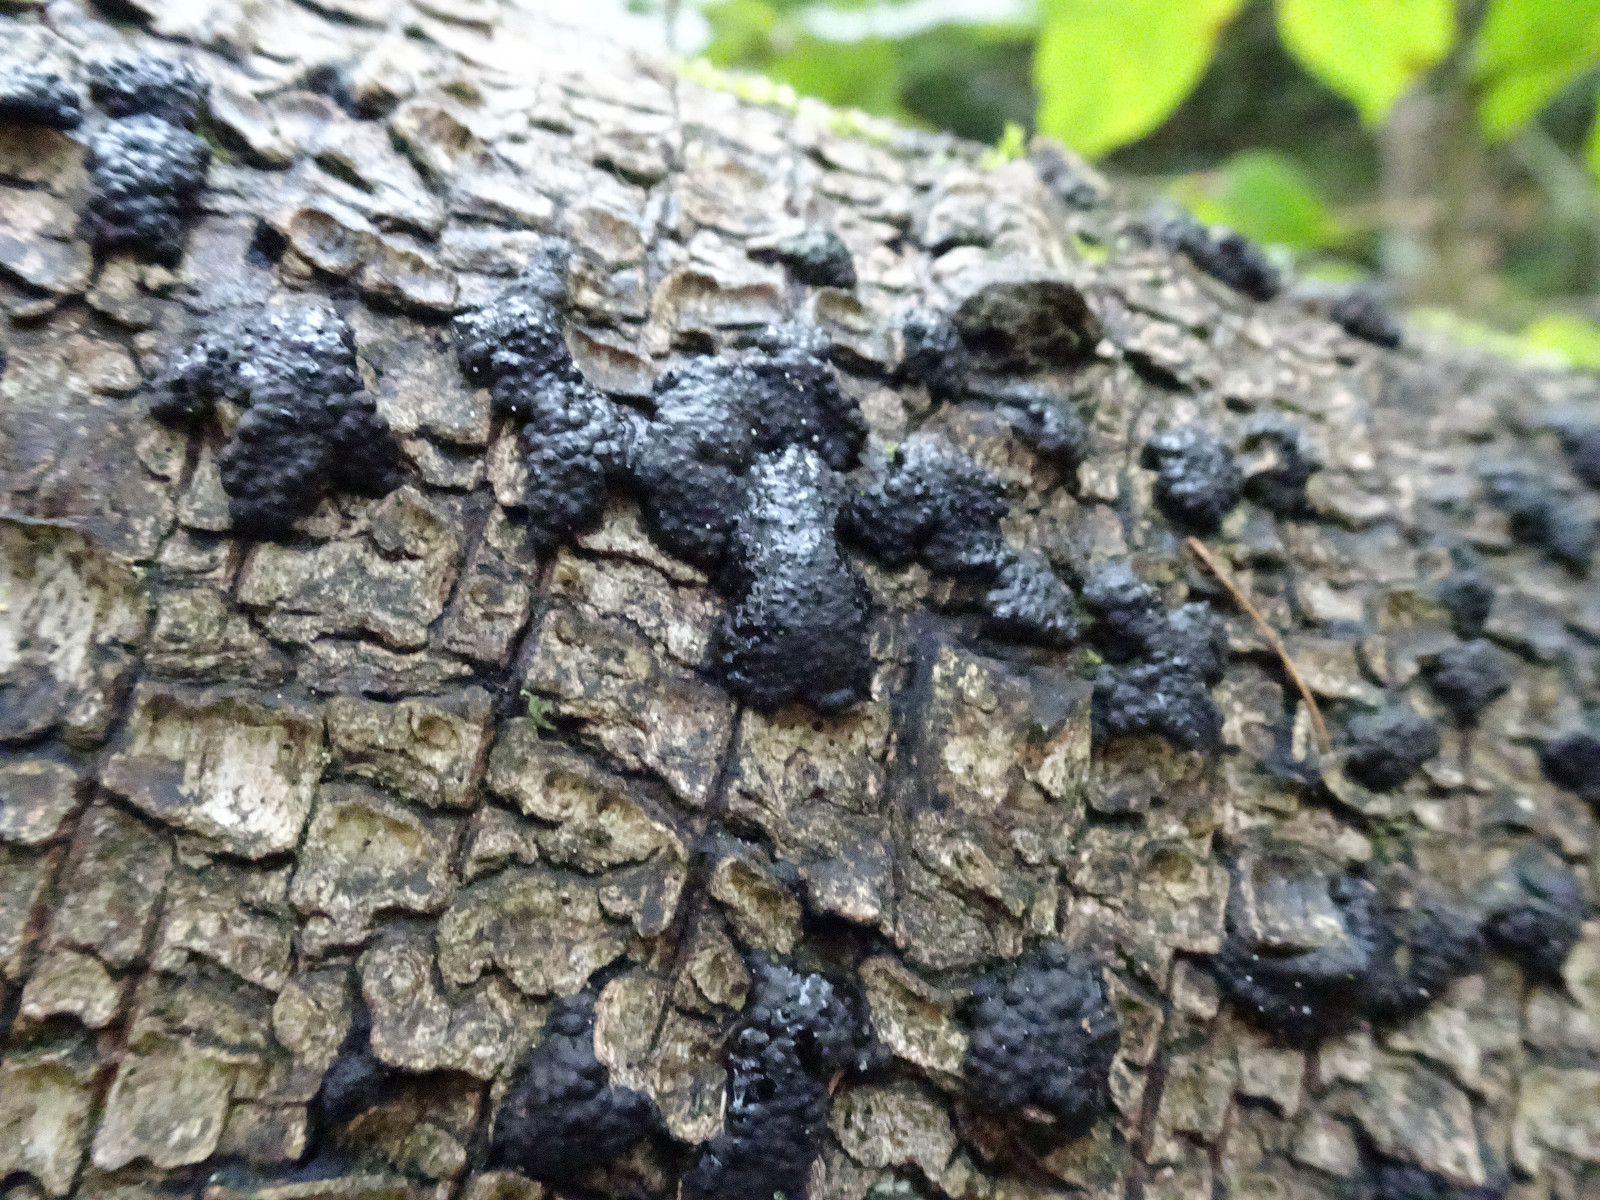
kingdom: Fungi
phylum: Ascomycota
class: Sordariomycetes
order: Xylariales
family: Hypoxylaceae
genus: Jackrogersella
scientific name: Jackrogersella
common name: kulbær
